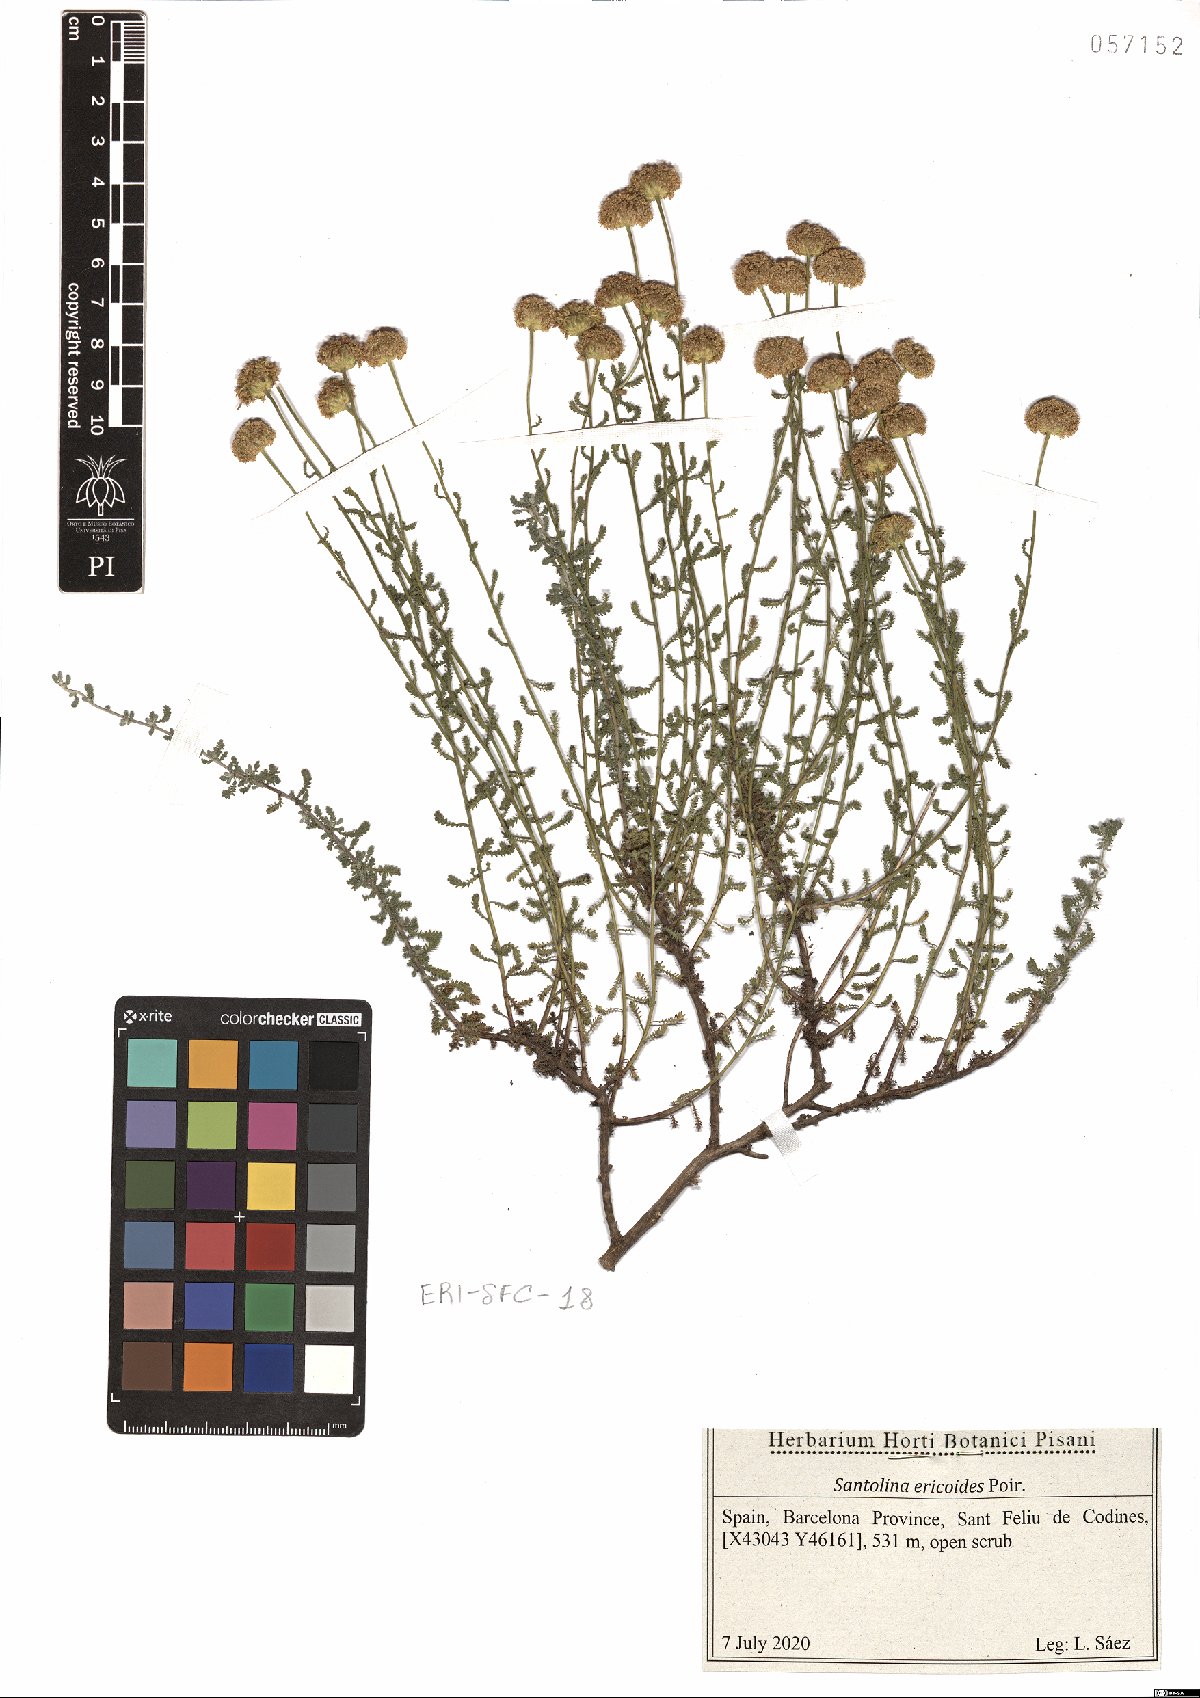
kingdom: Plantae
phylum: Tracheophyta
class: Magnoliopsida
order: Asterales
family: Asteraceae
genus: Santolina
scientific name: Santolina ericoides
